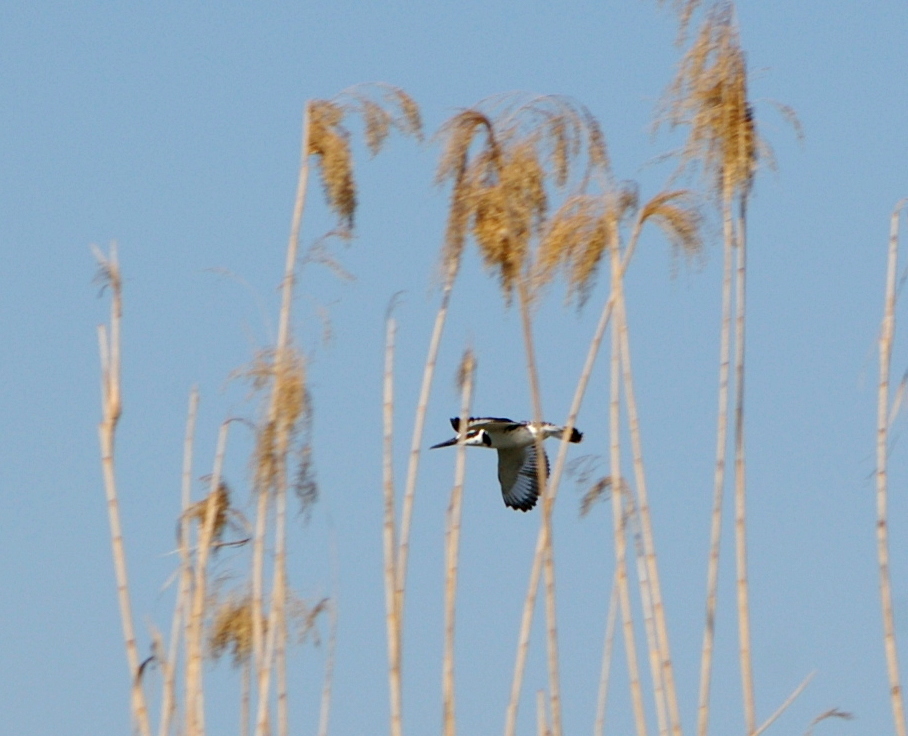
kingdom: Animalia
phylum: Chordata
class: Aves
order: Coraciiformes
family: Alcedinidae
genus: Ceryle
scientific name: Ceryle rudis
